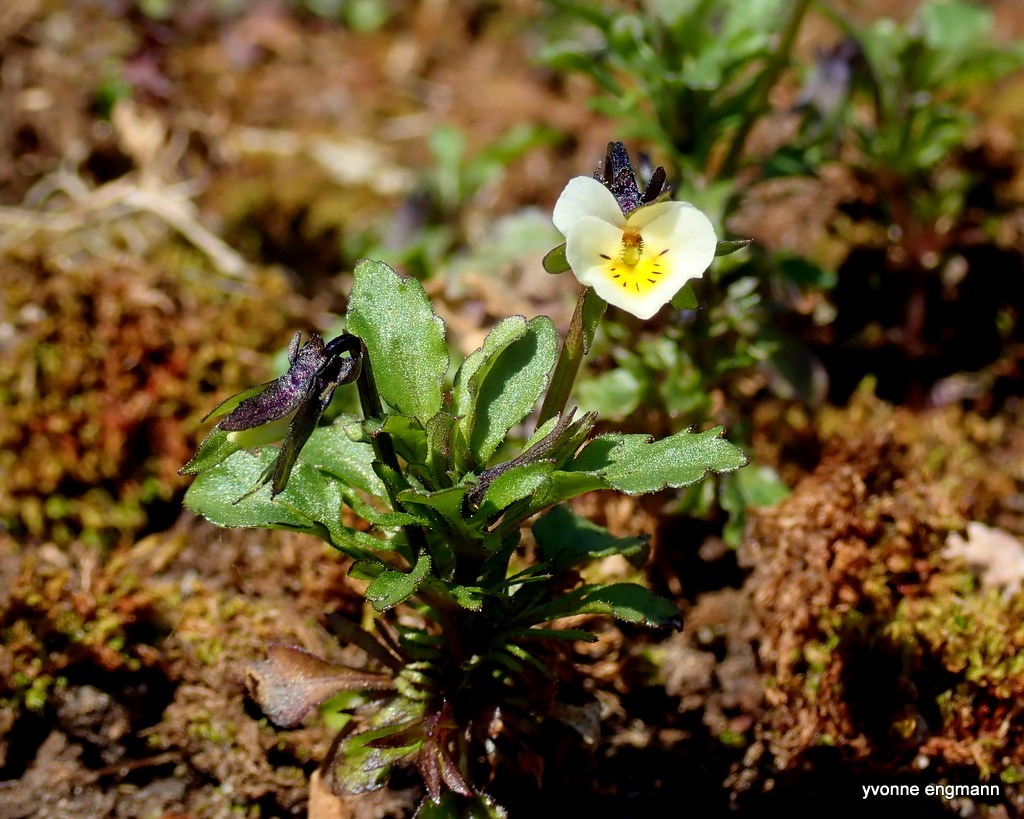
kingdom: Plantae
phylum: Tracheophyta
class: Magnoliopsida
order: Malpighiales
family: Violaceae
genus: Viola
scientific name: Viola arvensis
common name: Ager-stedmoderblomst
